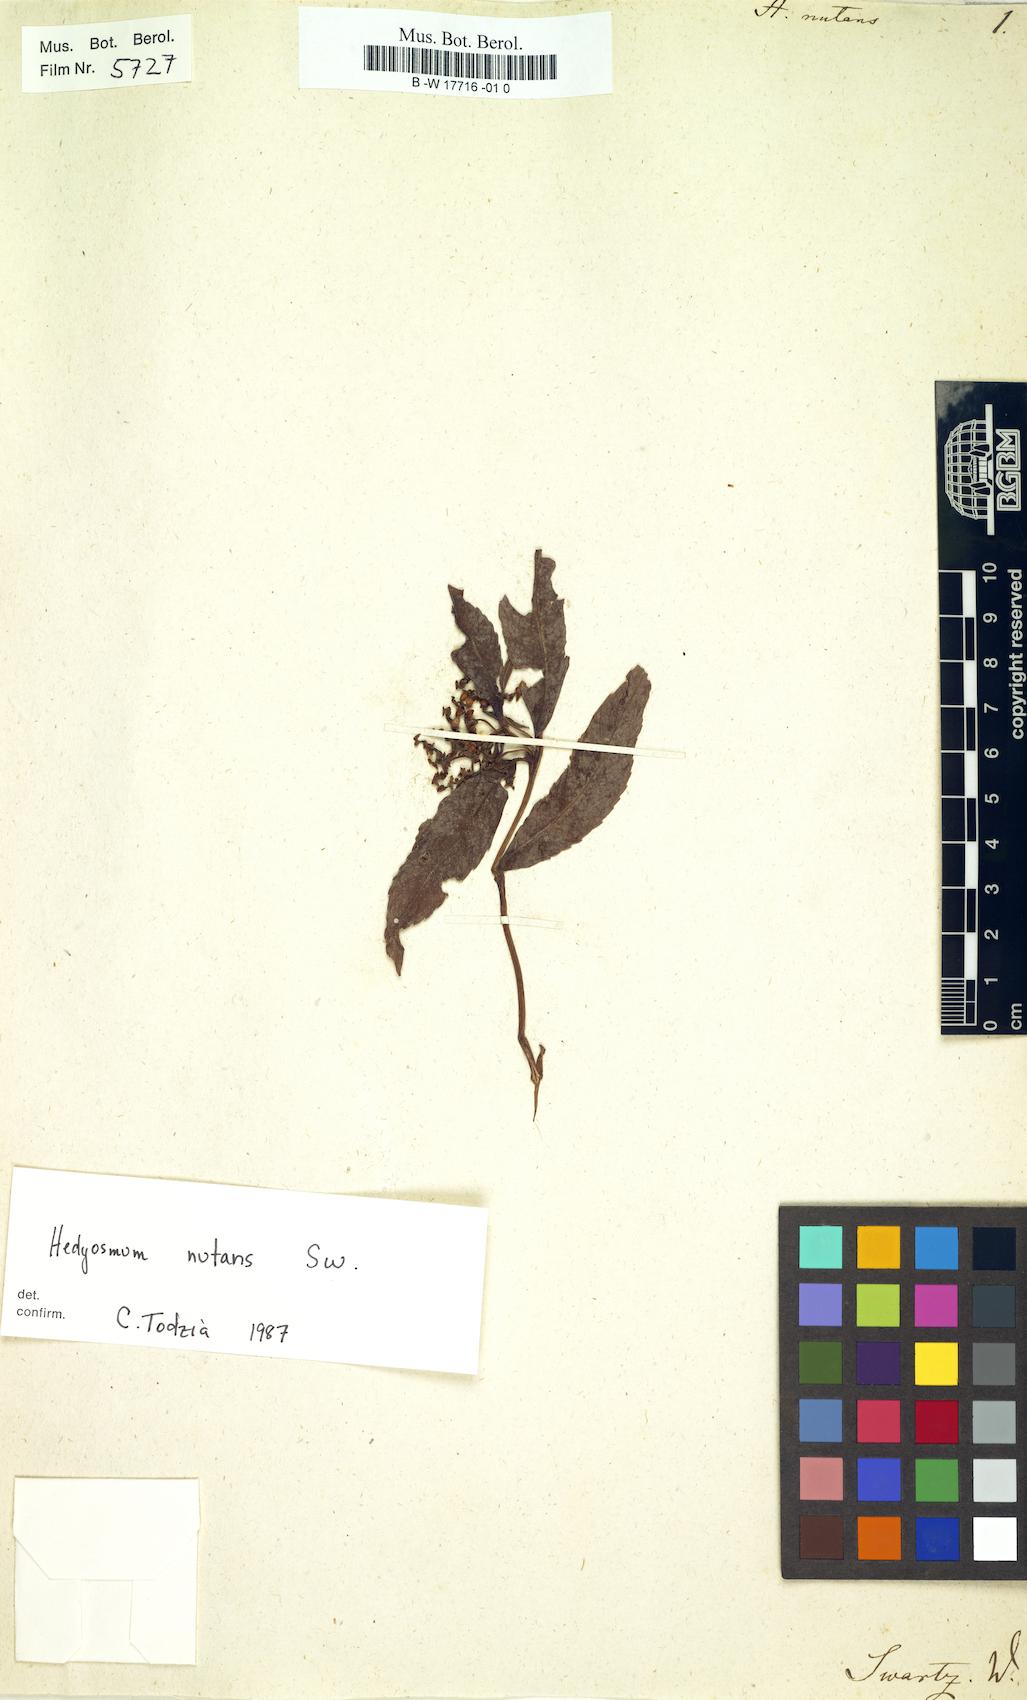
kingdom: Plantae
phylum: Tracheophyta
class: Magnoliopsida
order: Chloranthales
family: Chloranthaceae
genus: Hedyosmum
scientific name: Hedyosmum nutans
